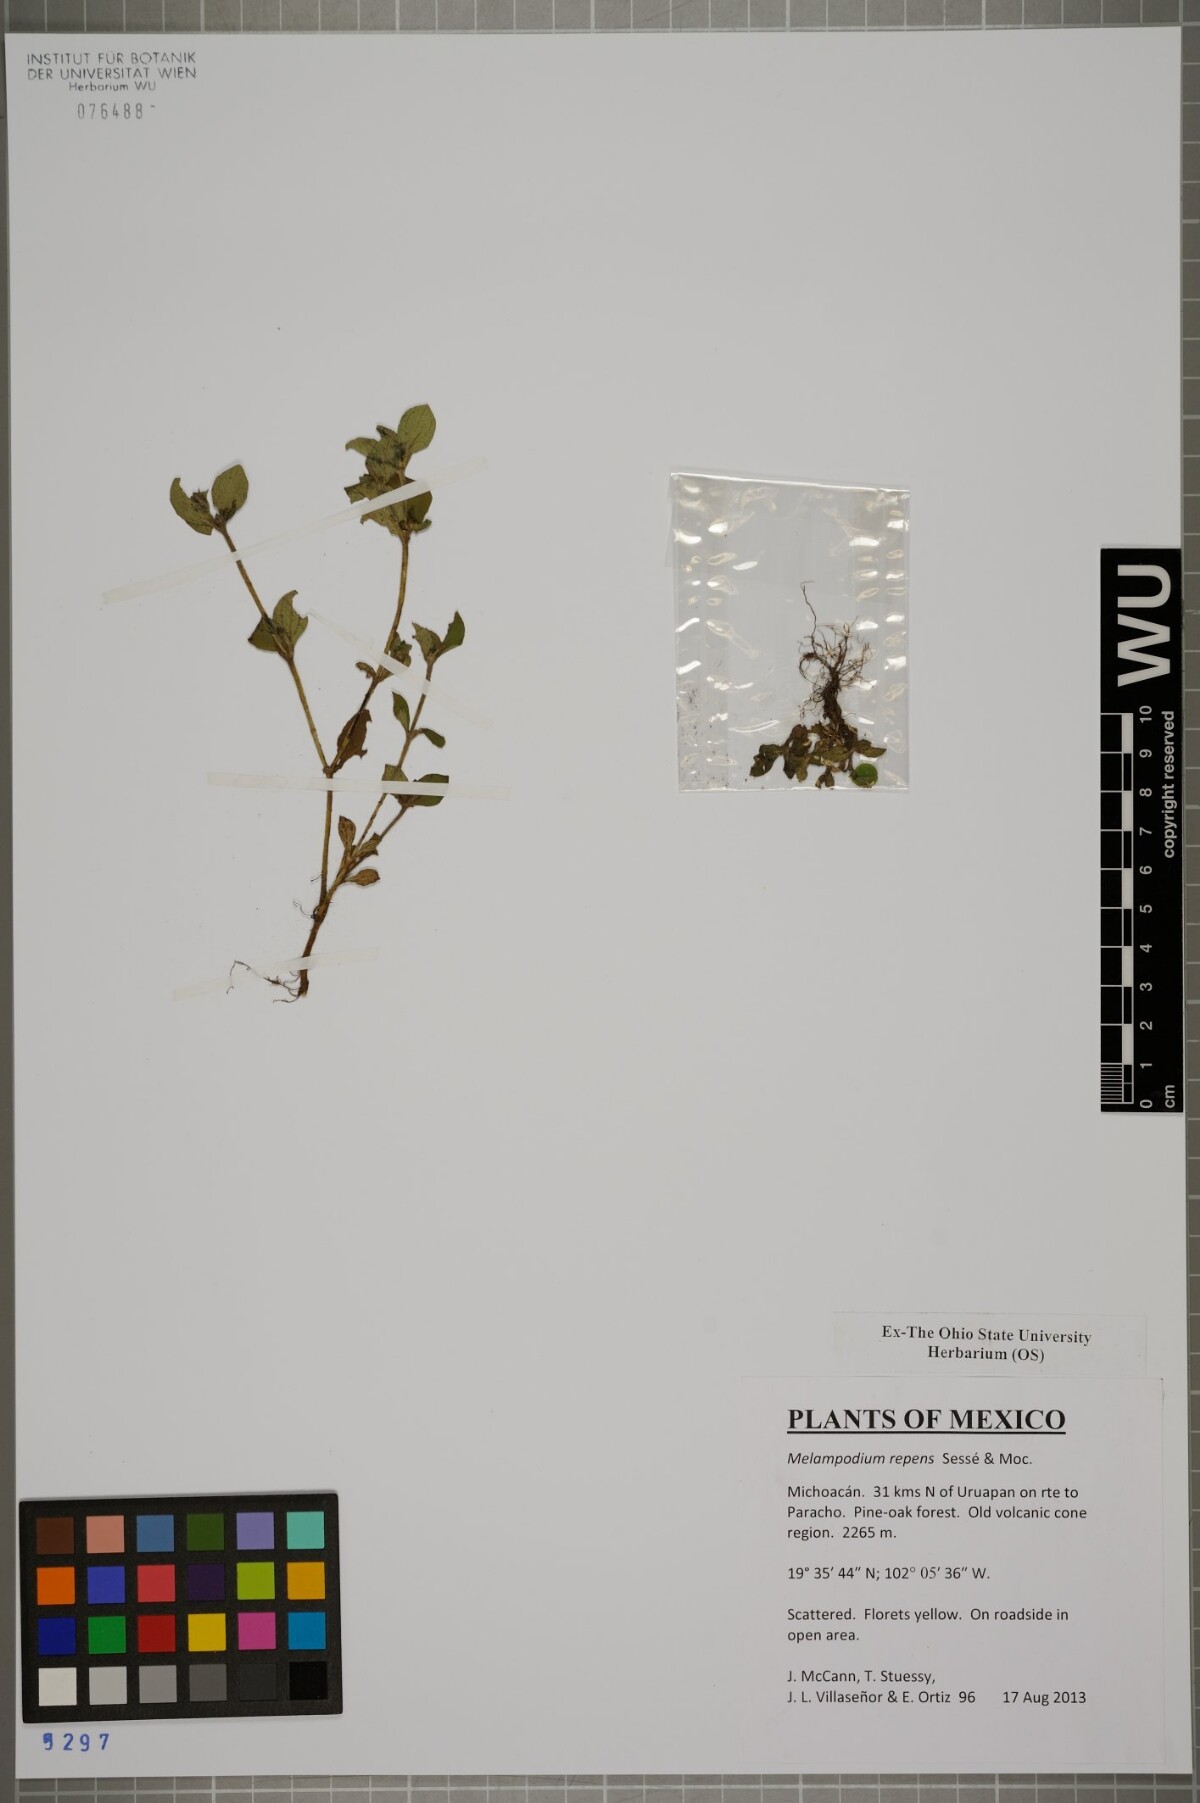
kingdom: Plantae
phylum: Tracheophyta
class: Magnoliopsida
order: Asterales
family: Asteraceae
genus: Melampodium
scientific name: Melampodium repens
